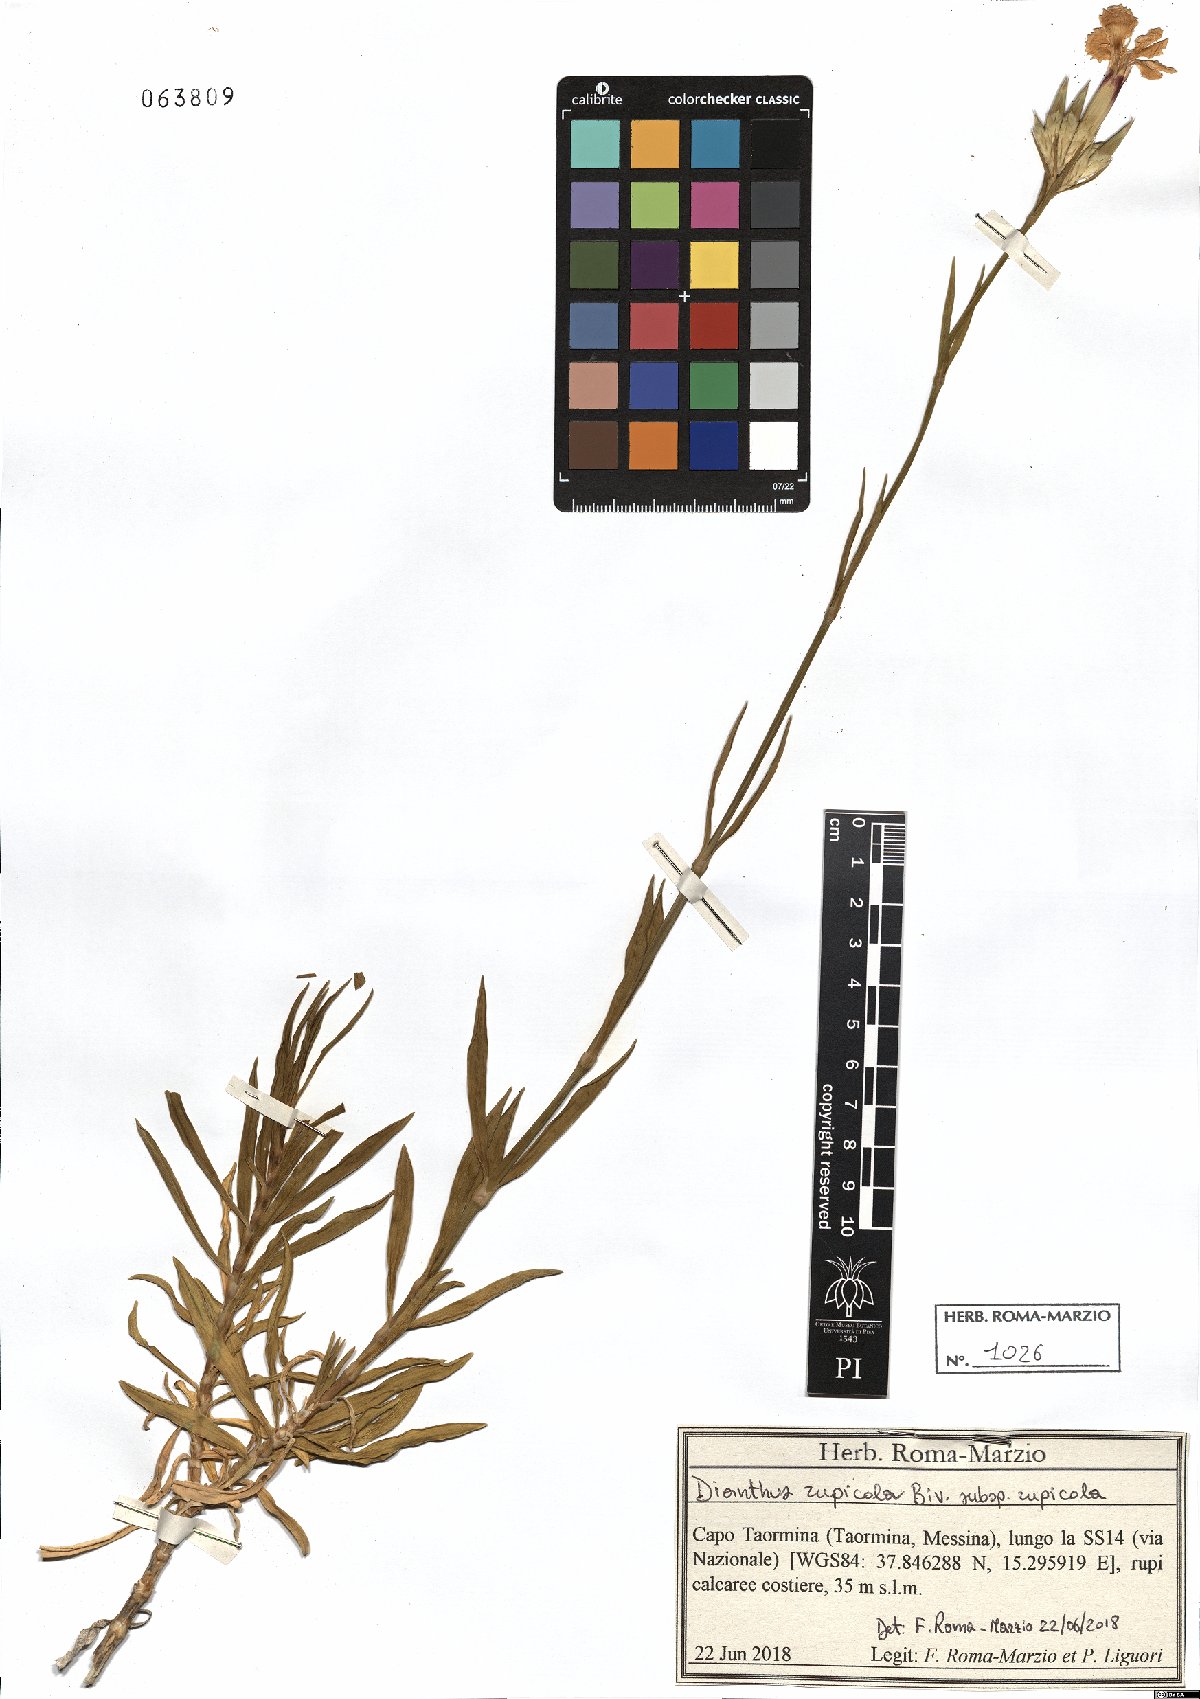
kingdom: Plantae
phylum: Tracheophyta
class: Magnoliopsida
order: Caryophyllales
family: Caryophyllaceae
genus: Dianthus
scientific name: Dianthus rupicola
